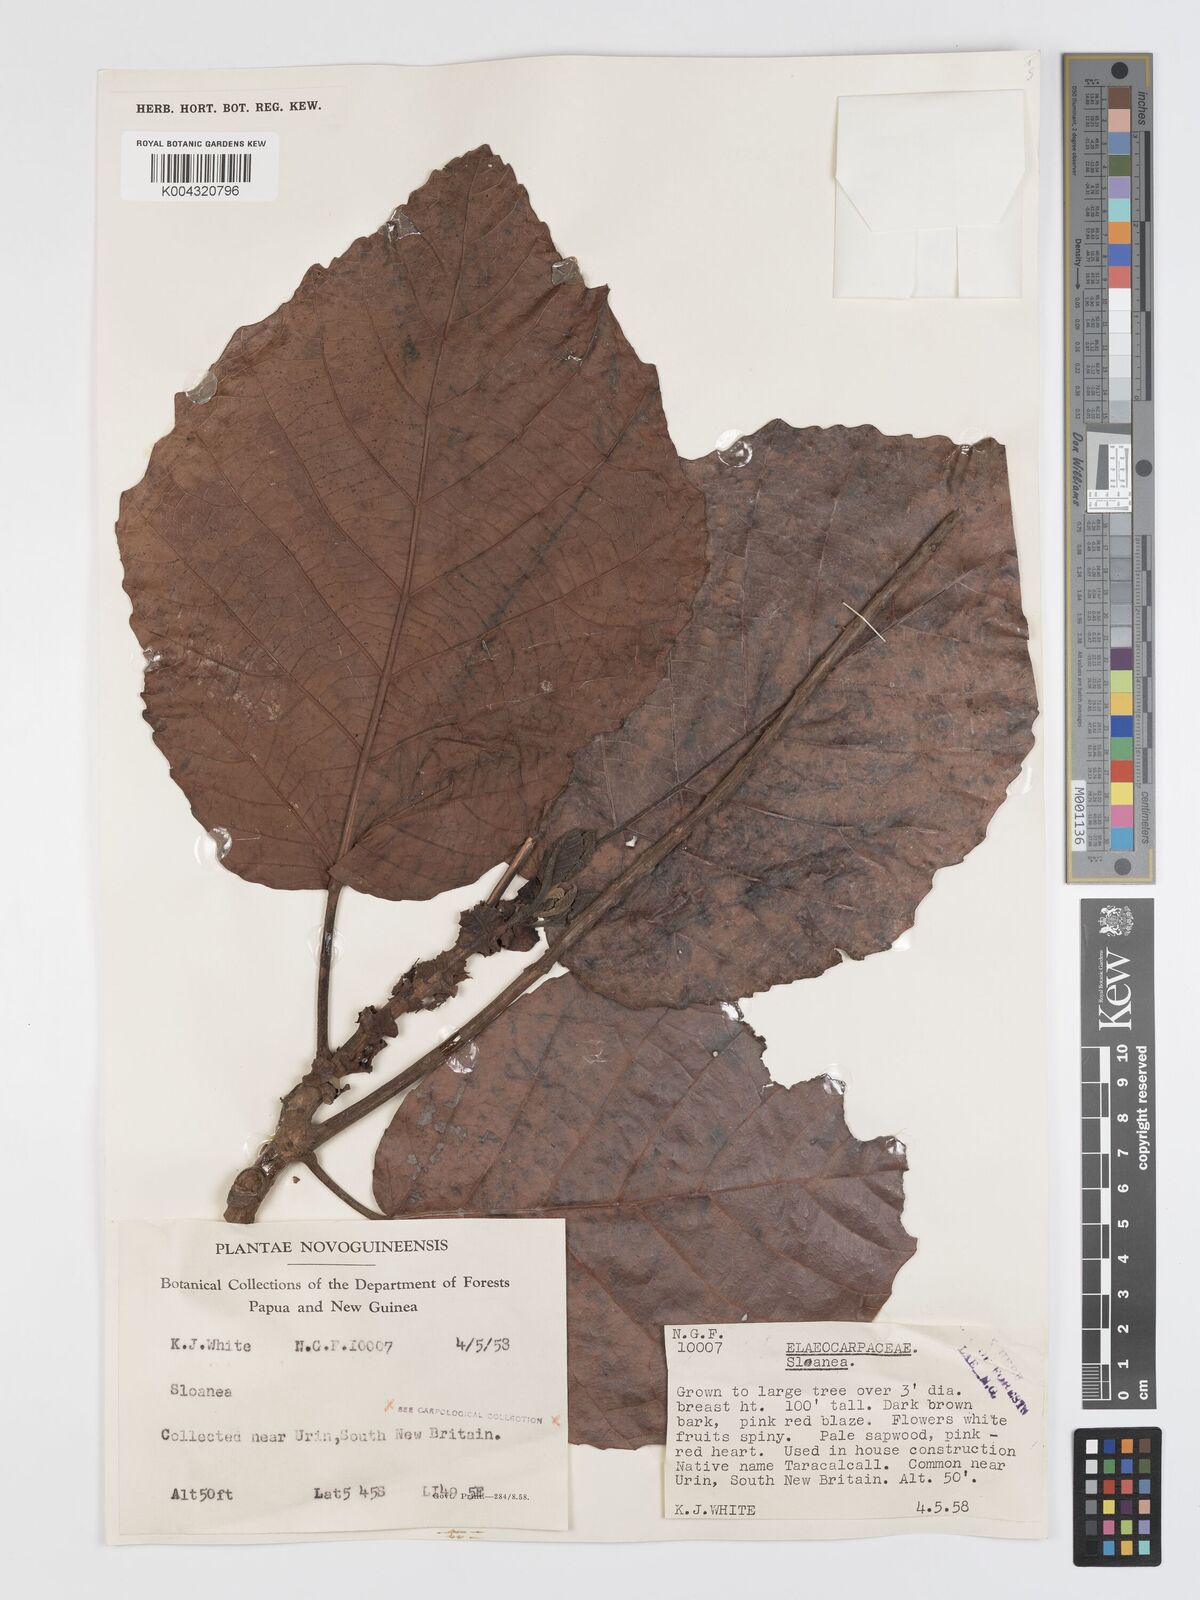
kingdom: Plantae
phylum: Tracheophyta
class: Magnoliopsida
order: Oxalidales
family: Elaeocarpaceae
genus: Sloanea
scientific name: Sloanea sogerensis
